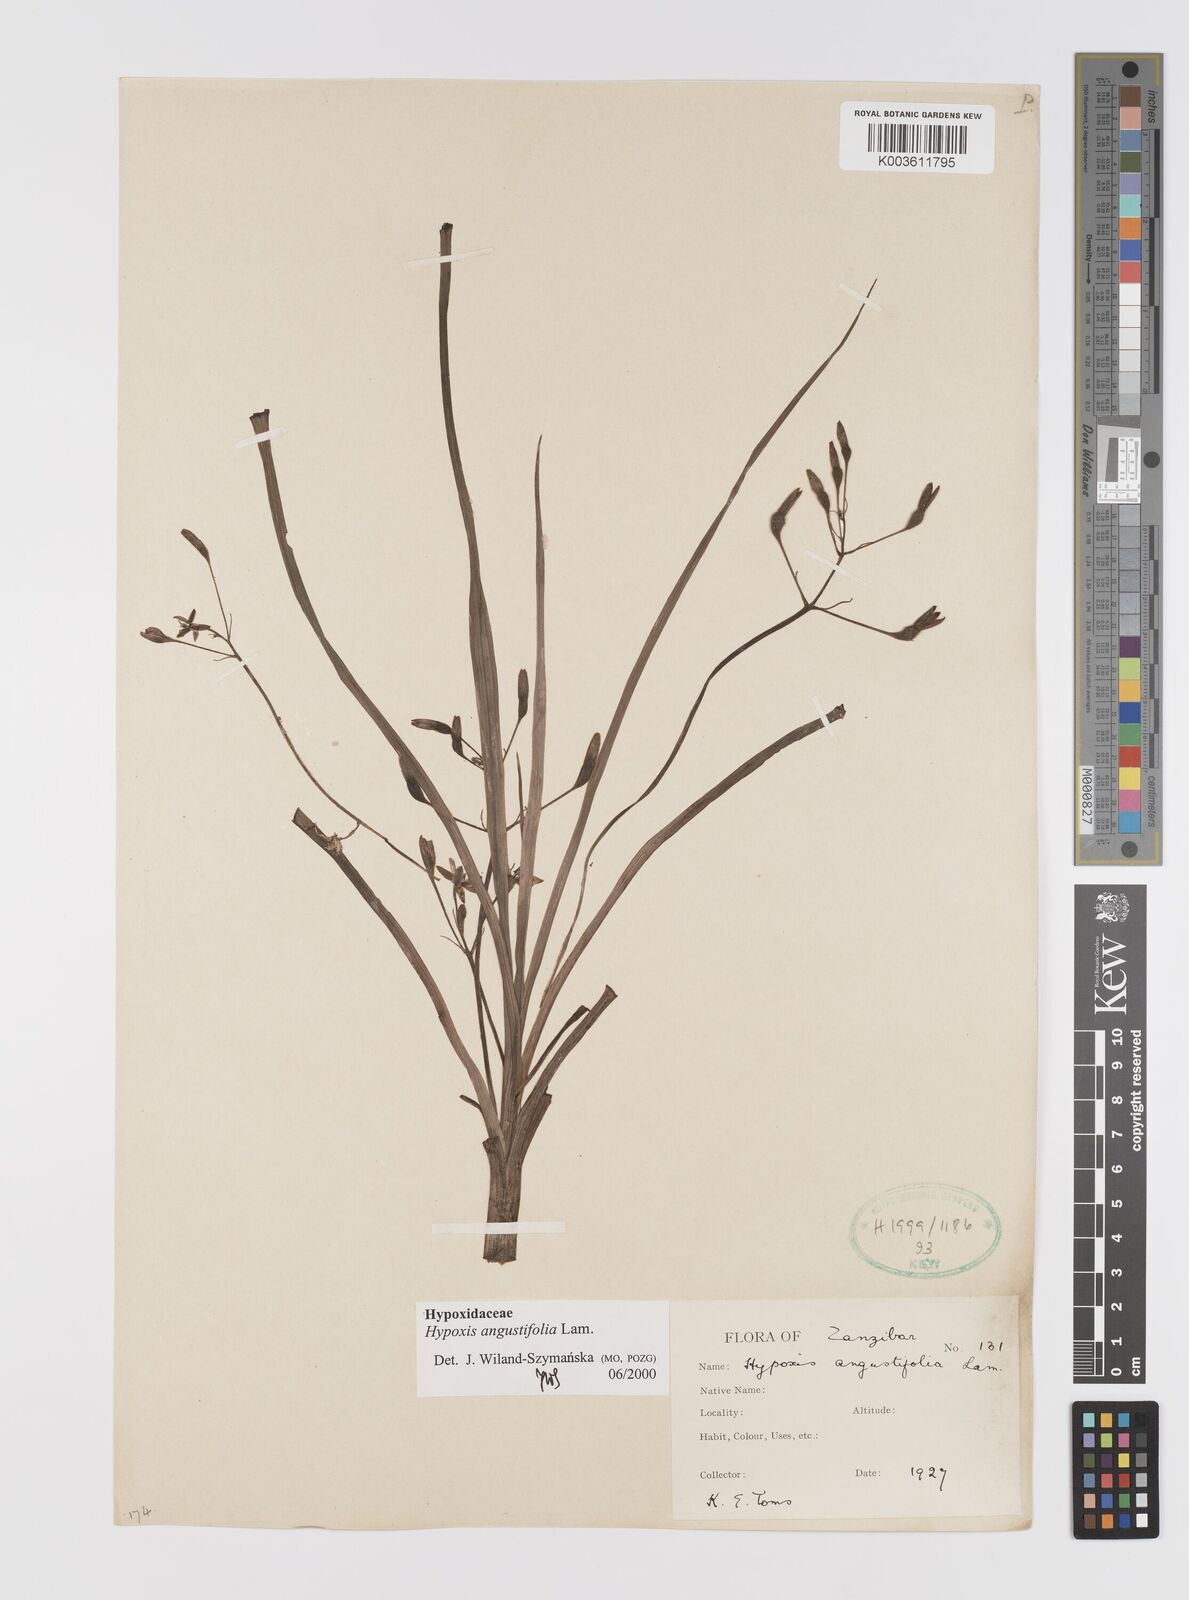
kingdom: Plantae
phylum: Tracheophyta
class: Liliopsida
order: Asparagales
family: Hypoxidaceae
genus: Hypoxis
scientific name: Hypoxis angustifolia
